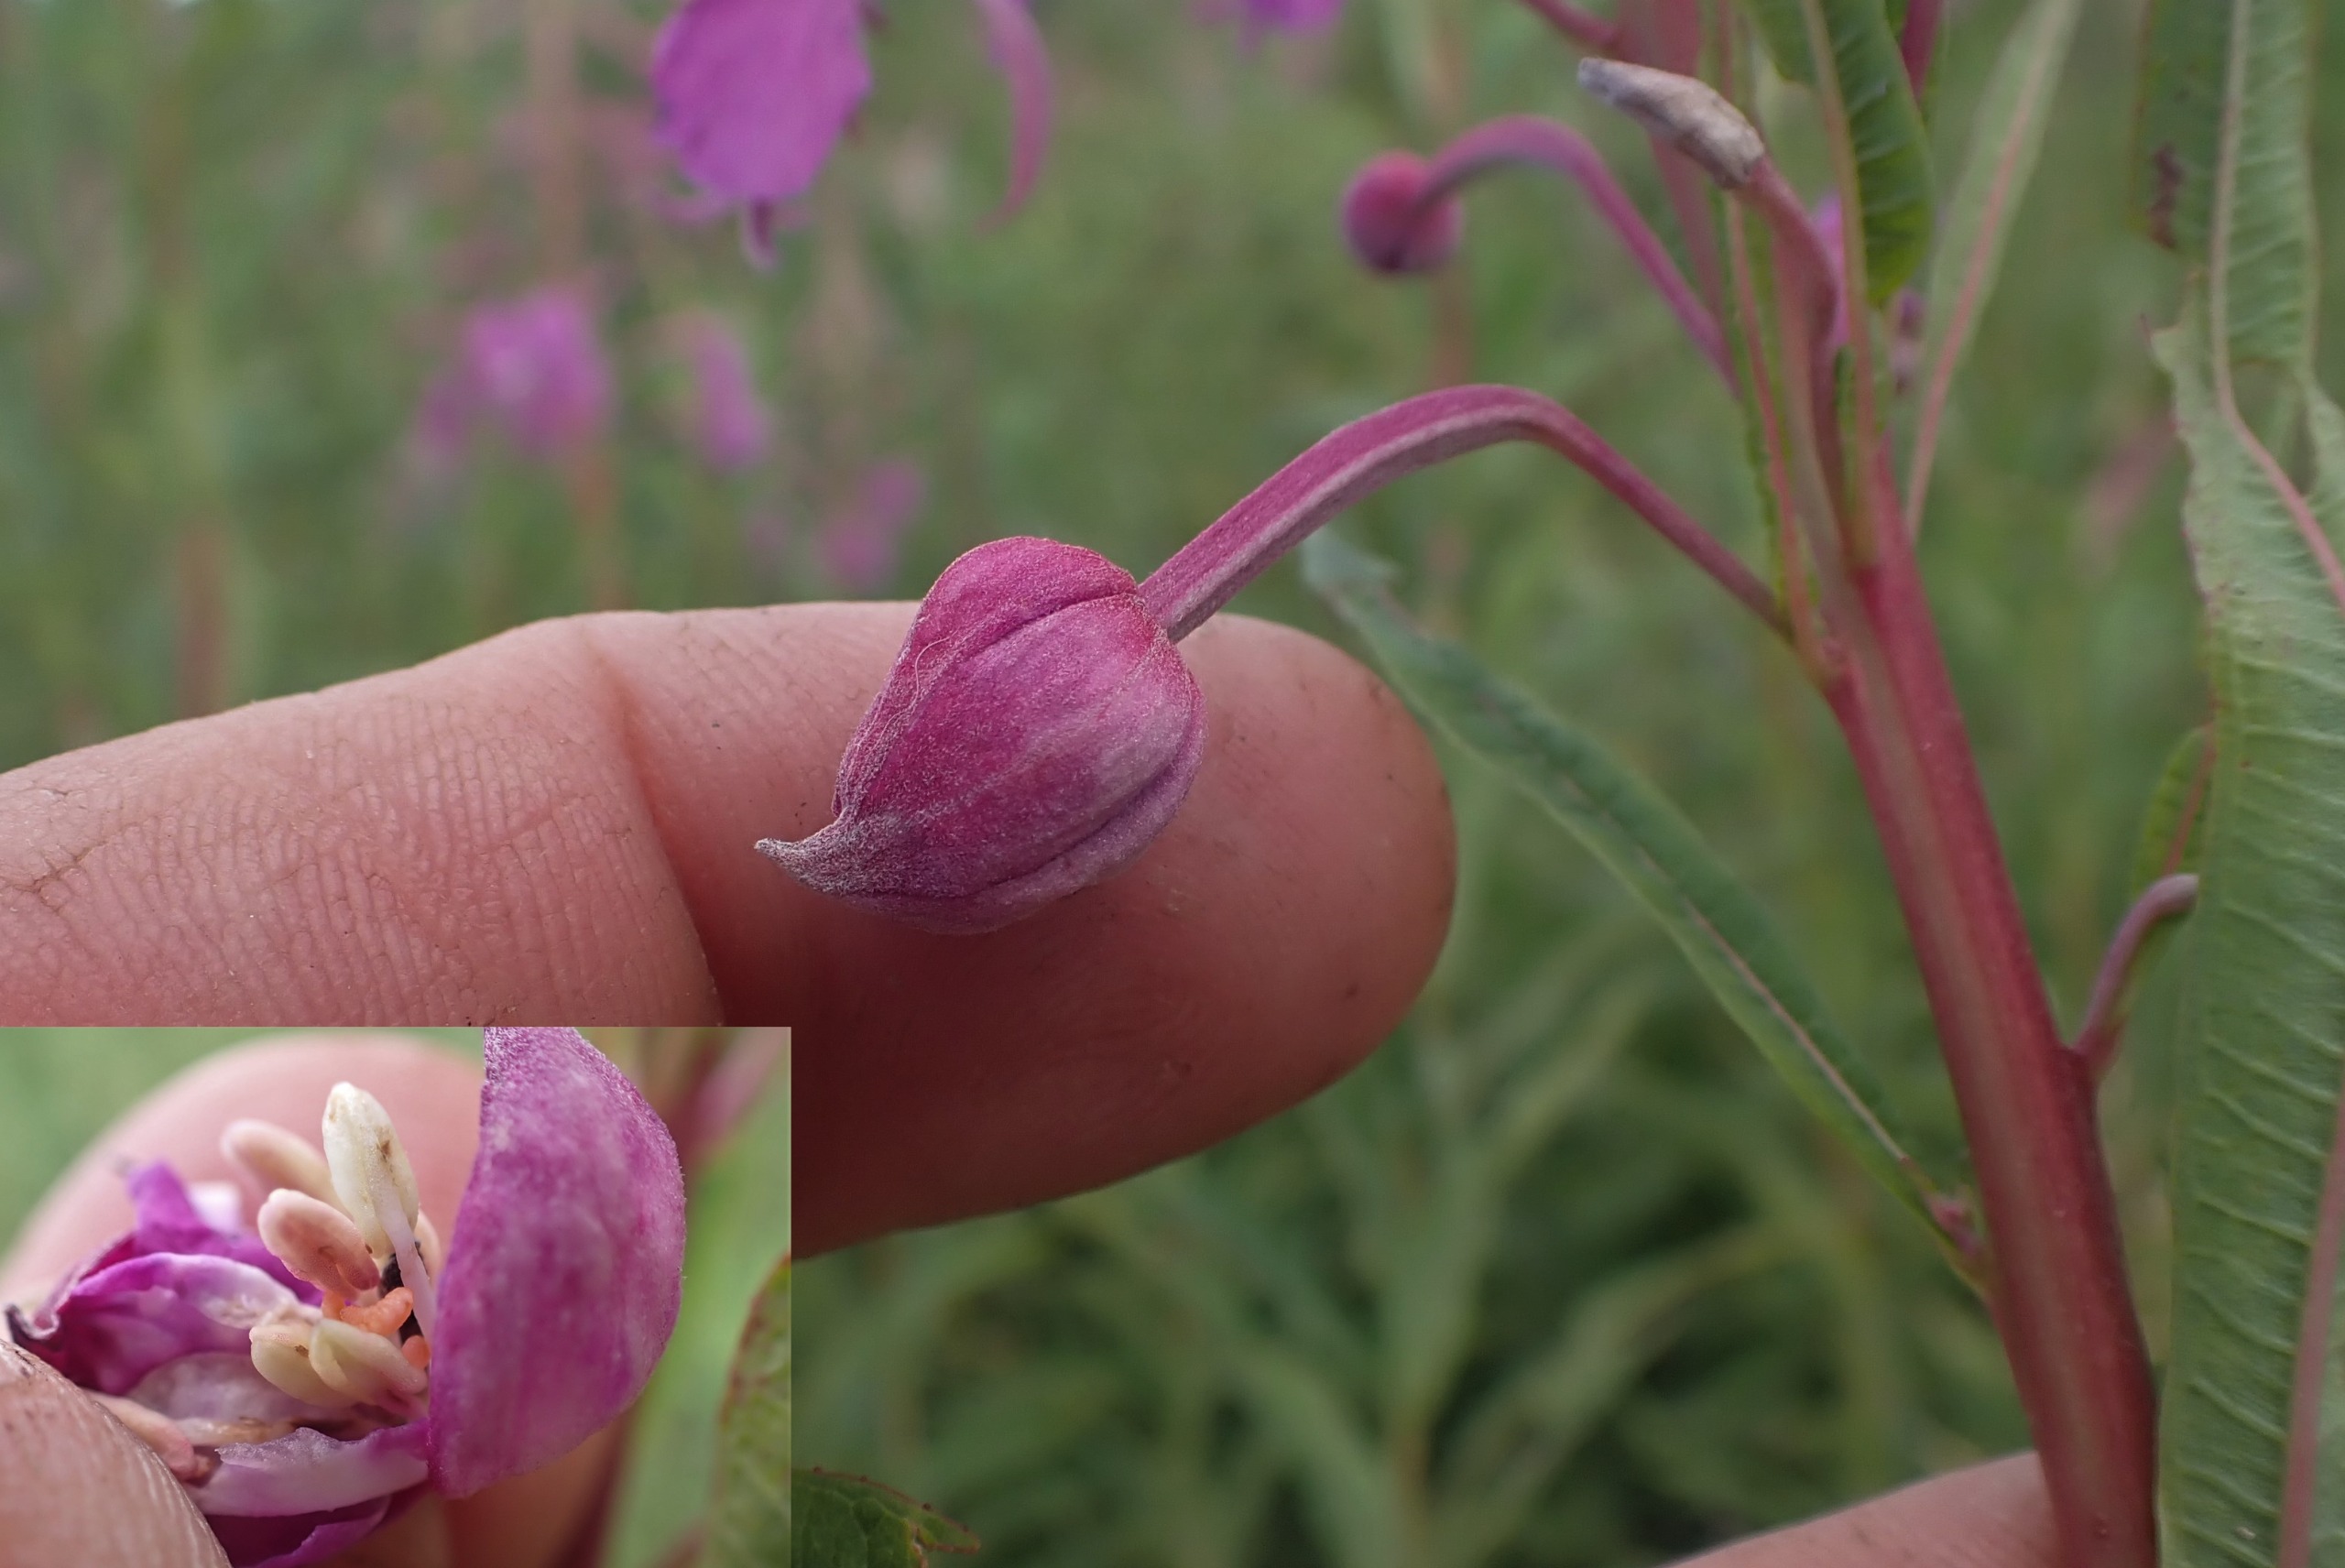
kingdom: Animalia
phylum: Arthropoda
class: Insecta
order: Diptera
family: Cecidomyiidae
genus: Dasineura
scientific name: Dasineura epilobii
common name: Gederamsblomstgalmyg
